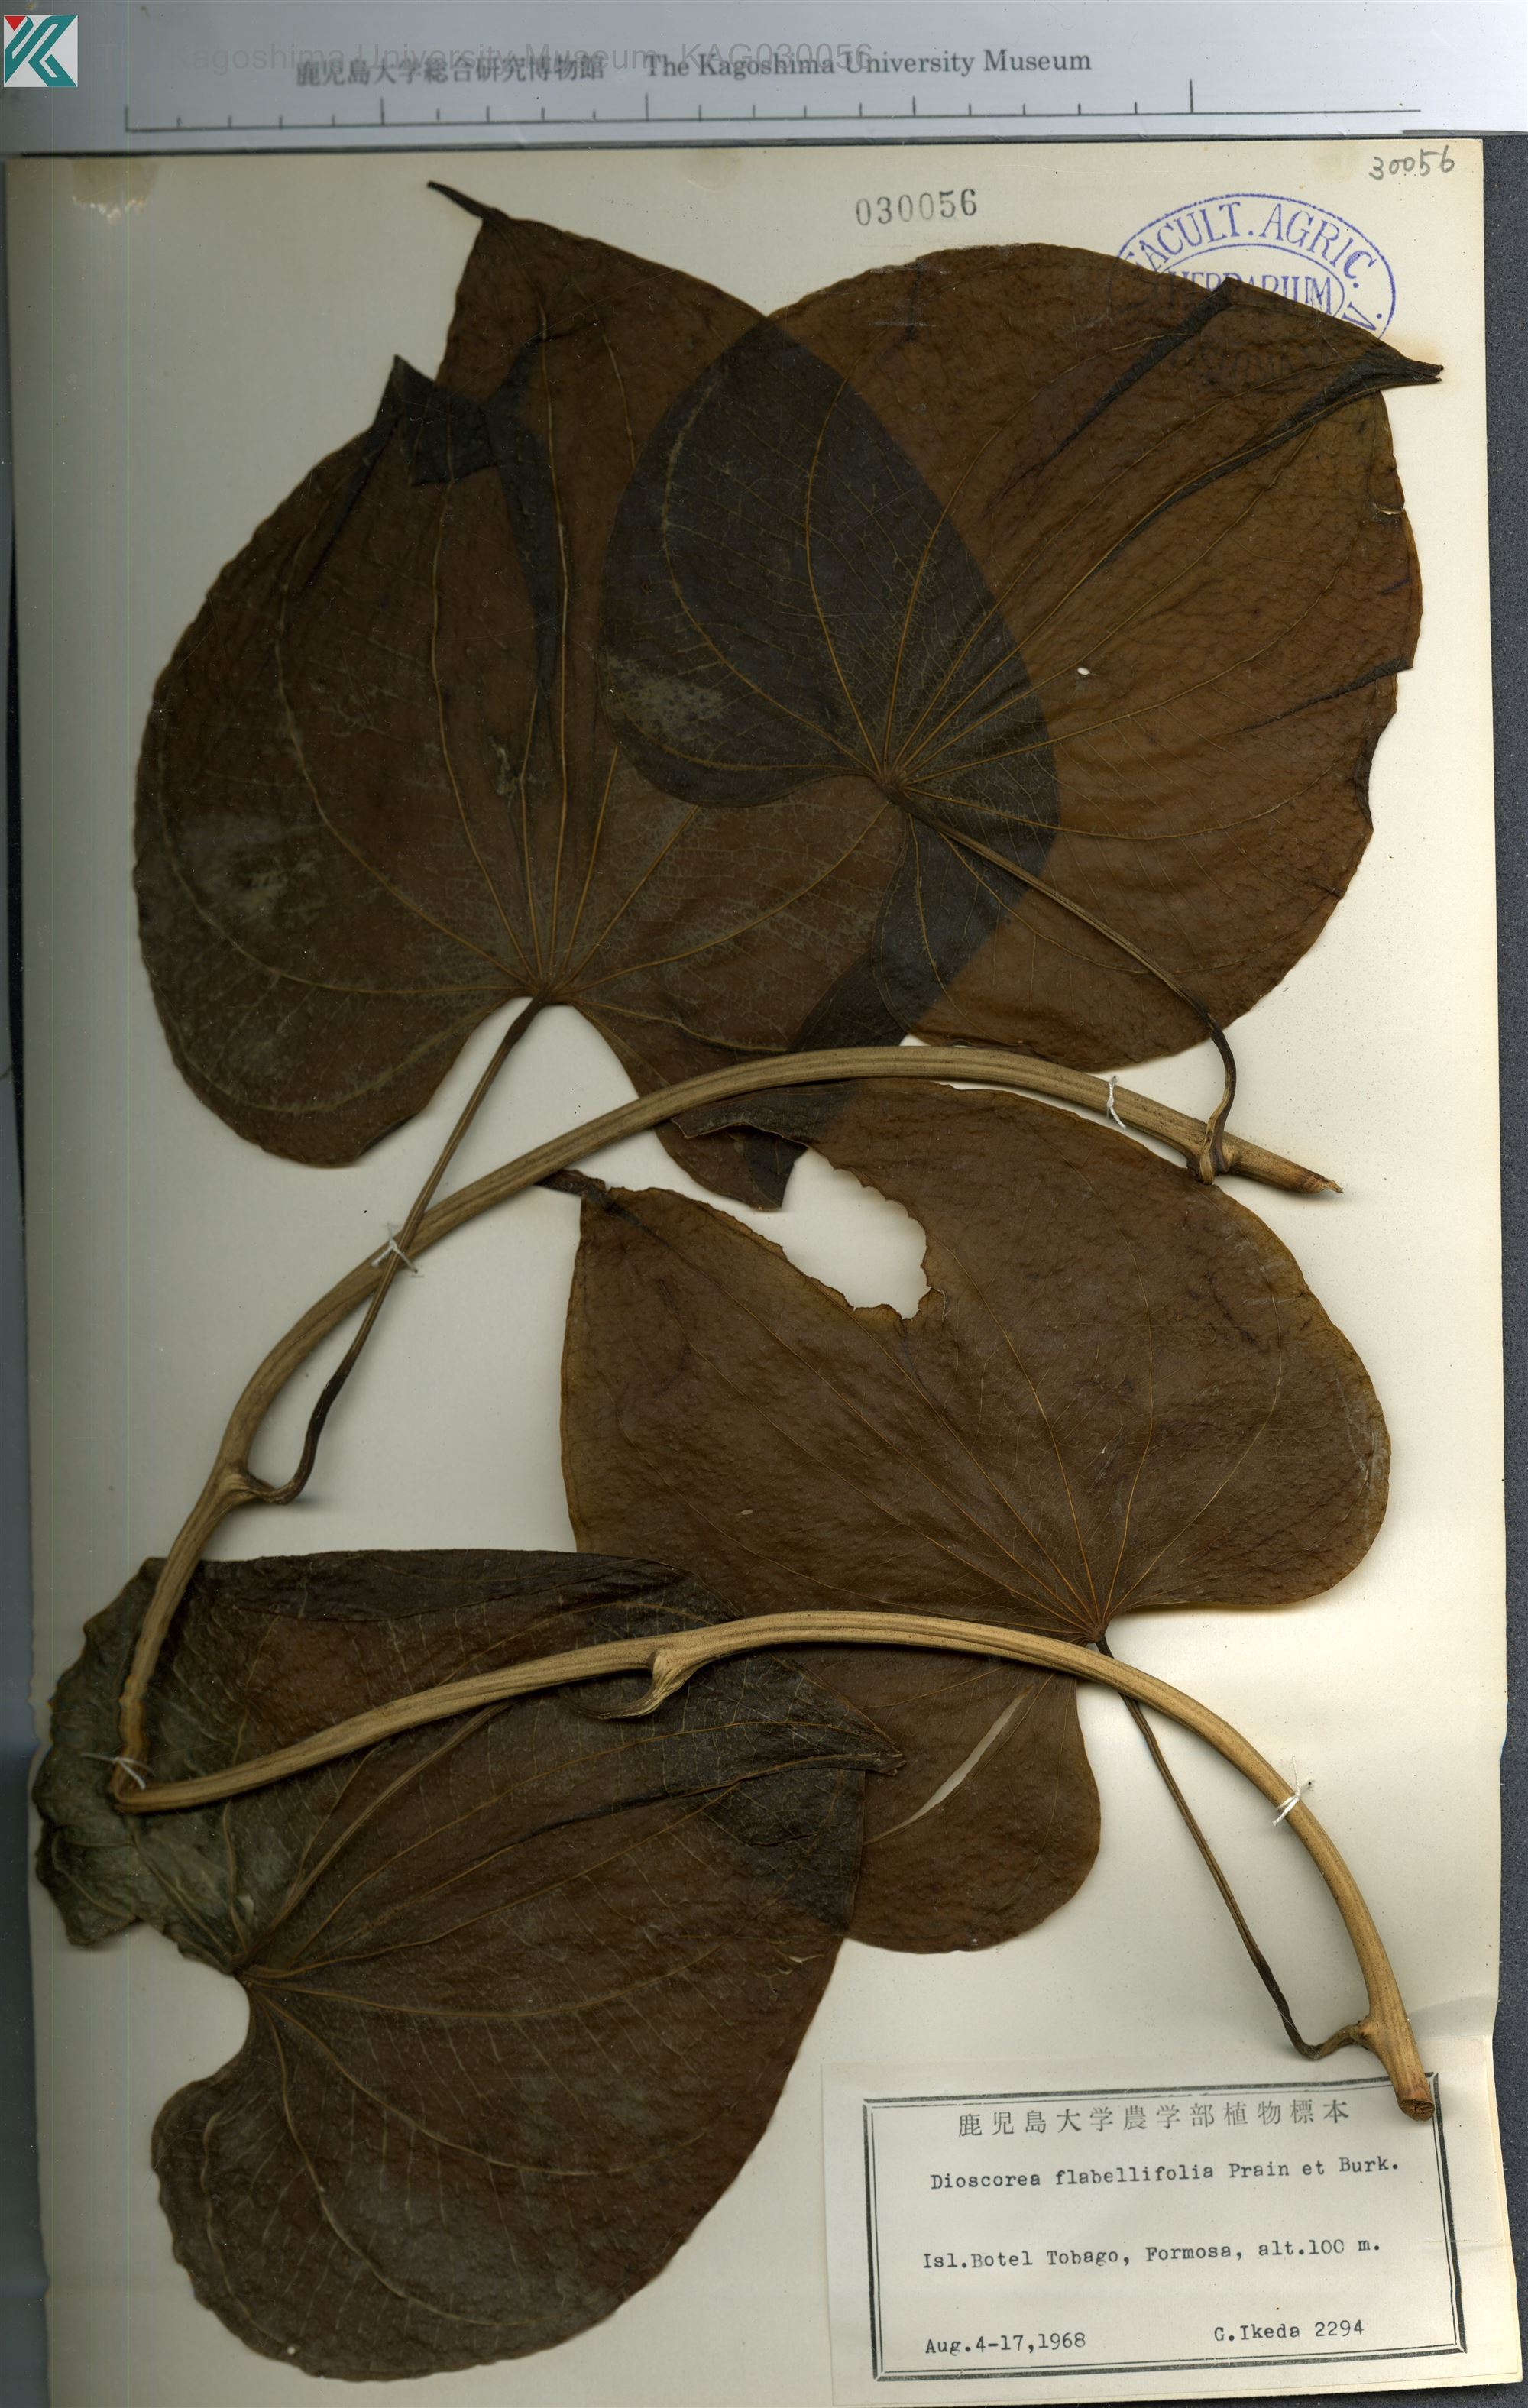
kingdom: Plantae
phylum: Tracheophyta
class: Liliopsida
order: Dioscoreales
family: Dioscoreaceae
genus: Dioscorea
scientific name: Dioscorea flabellifolia
